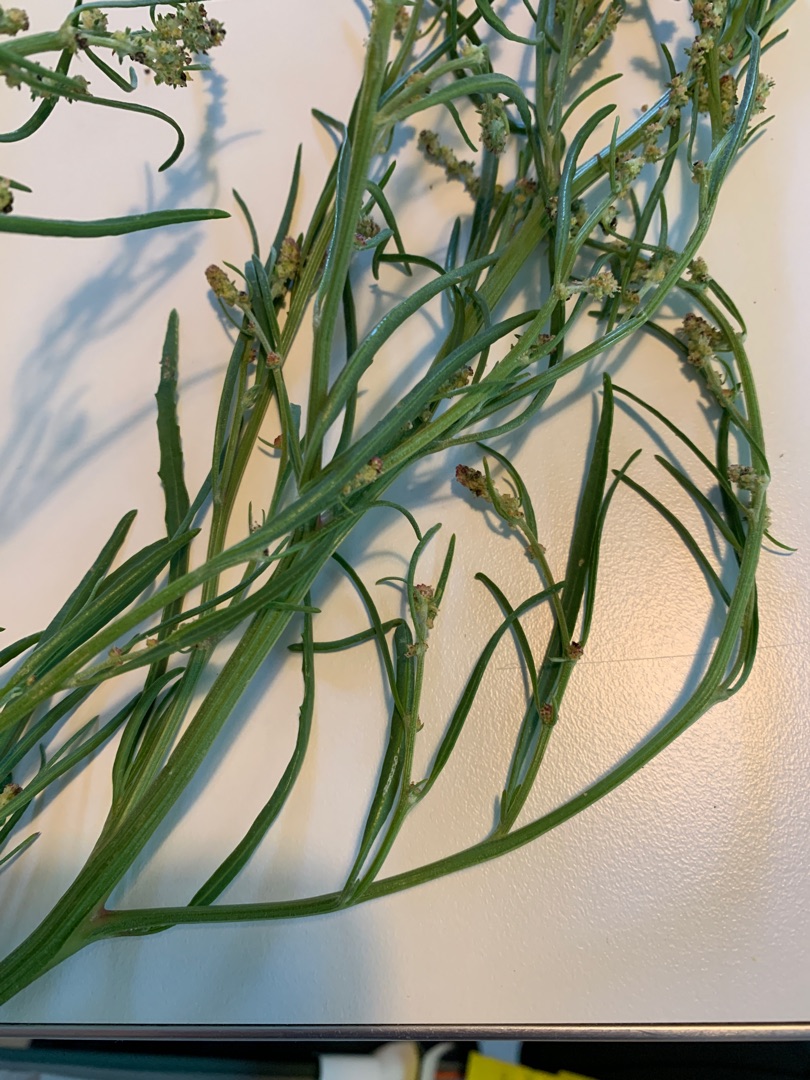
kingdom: Plantae
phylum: Tracheophyta
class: Magnoliopsida
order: Caryophyllales
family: Amaranthaceae
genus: Atriplex
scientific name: Atriplex littoralis
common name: Strand-mælde
